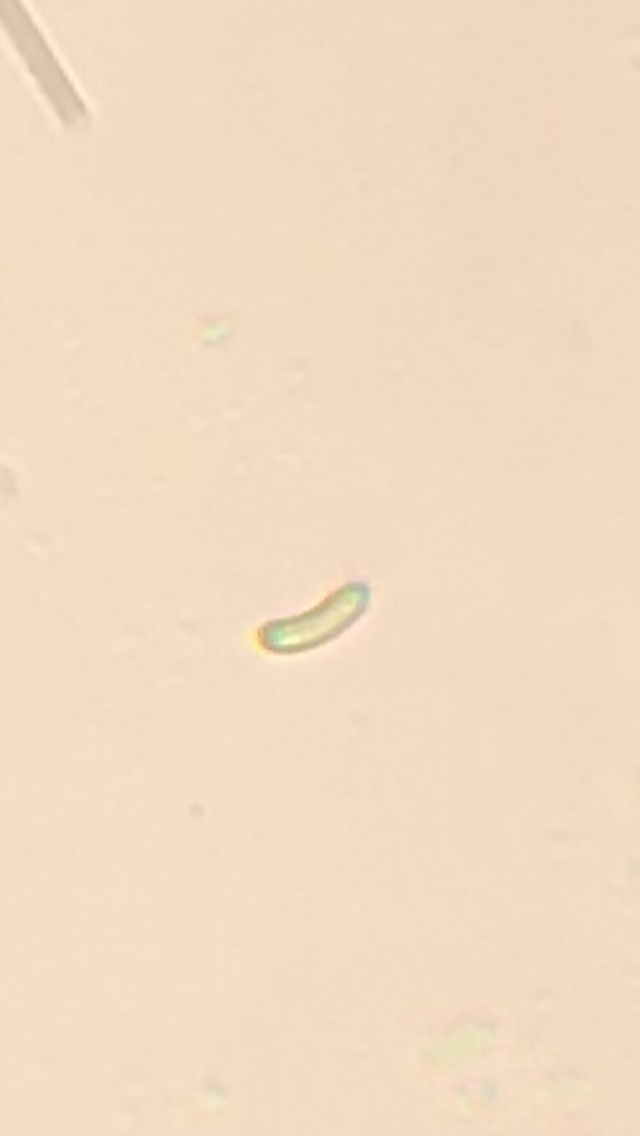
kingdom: Fungi
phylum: Basidiomycota
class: Agaricomycetes
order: Polyporales
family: Incrustoporiaceae
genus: Skeletocutis
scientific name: Skeletocutis nemoralis
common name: stor krystalporesvamp
